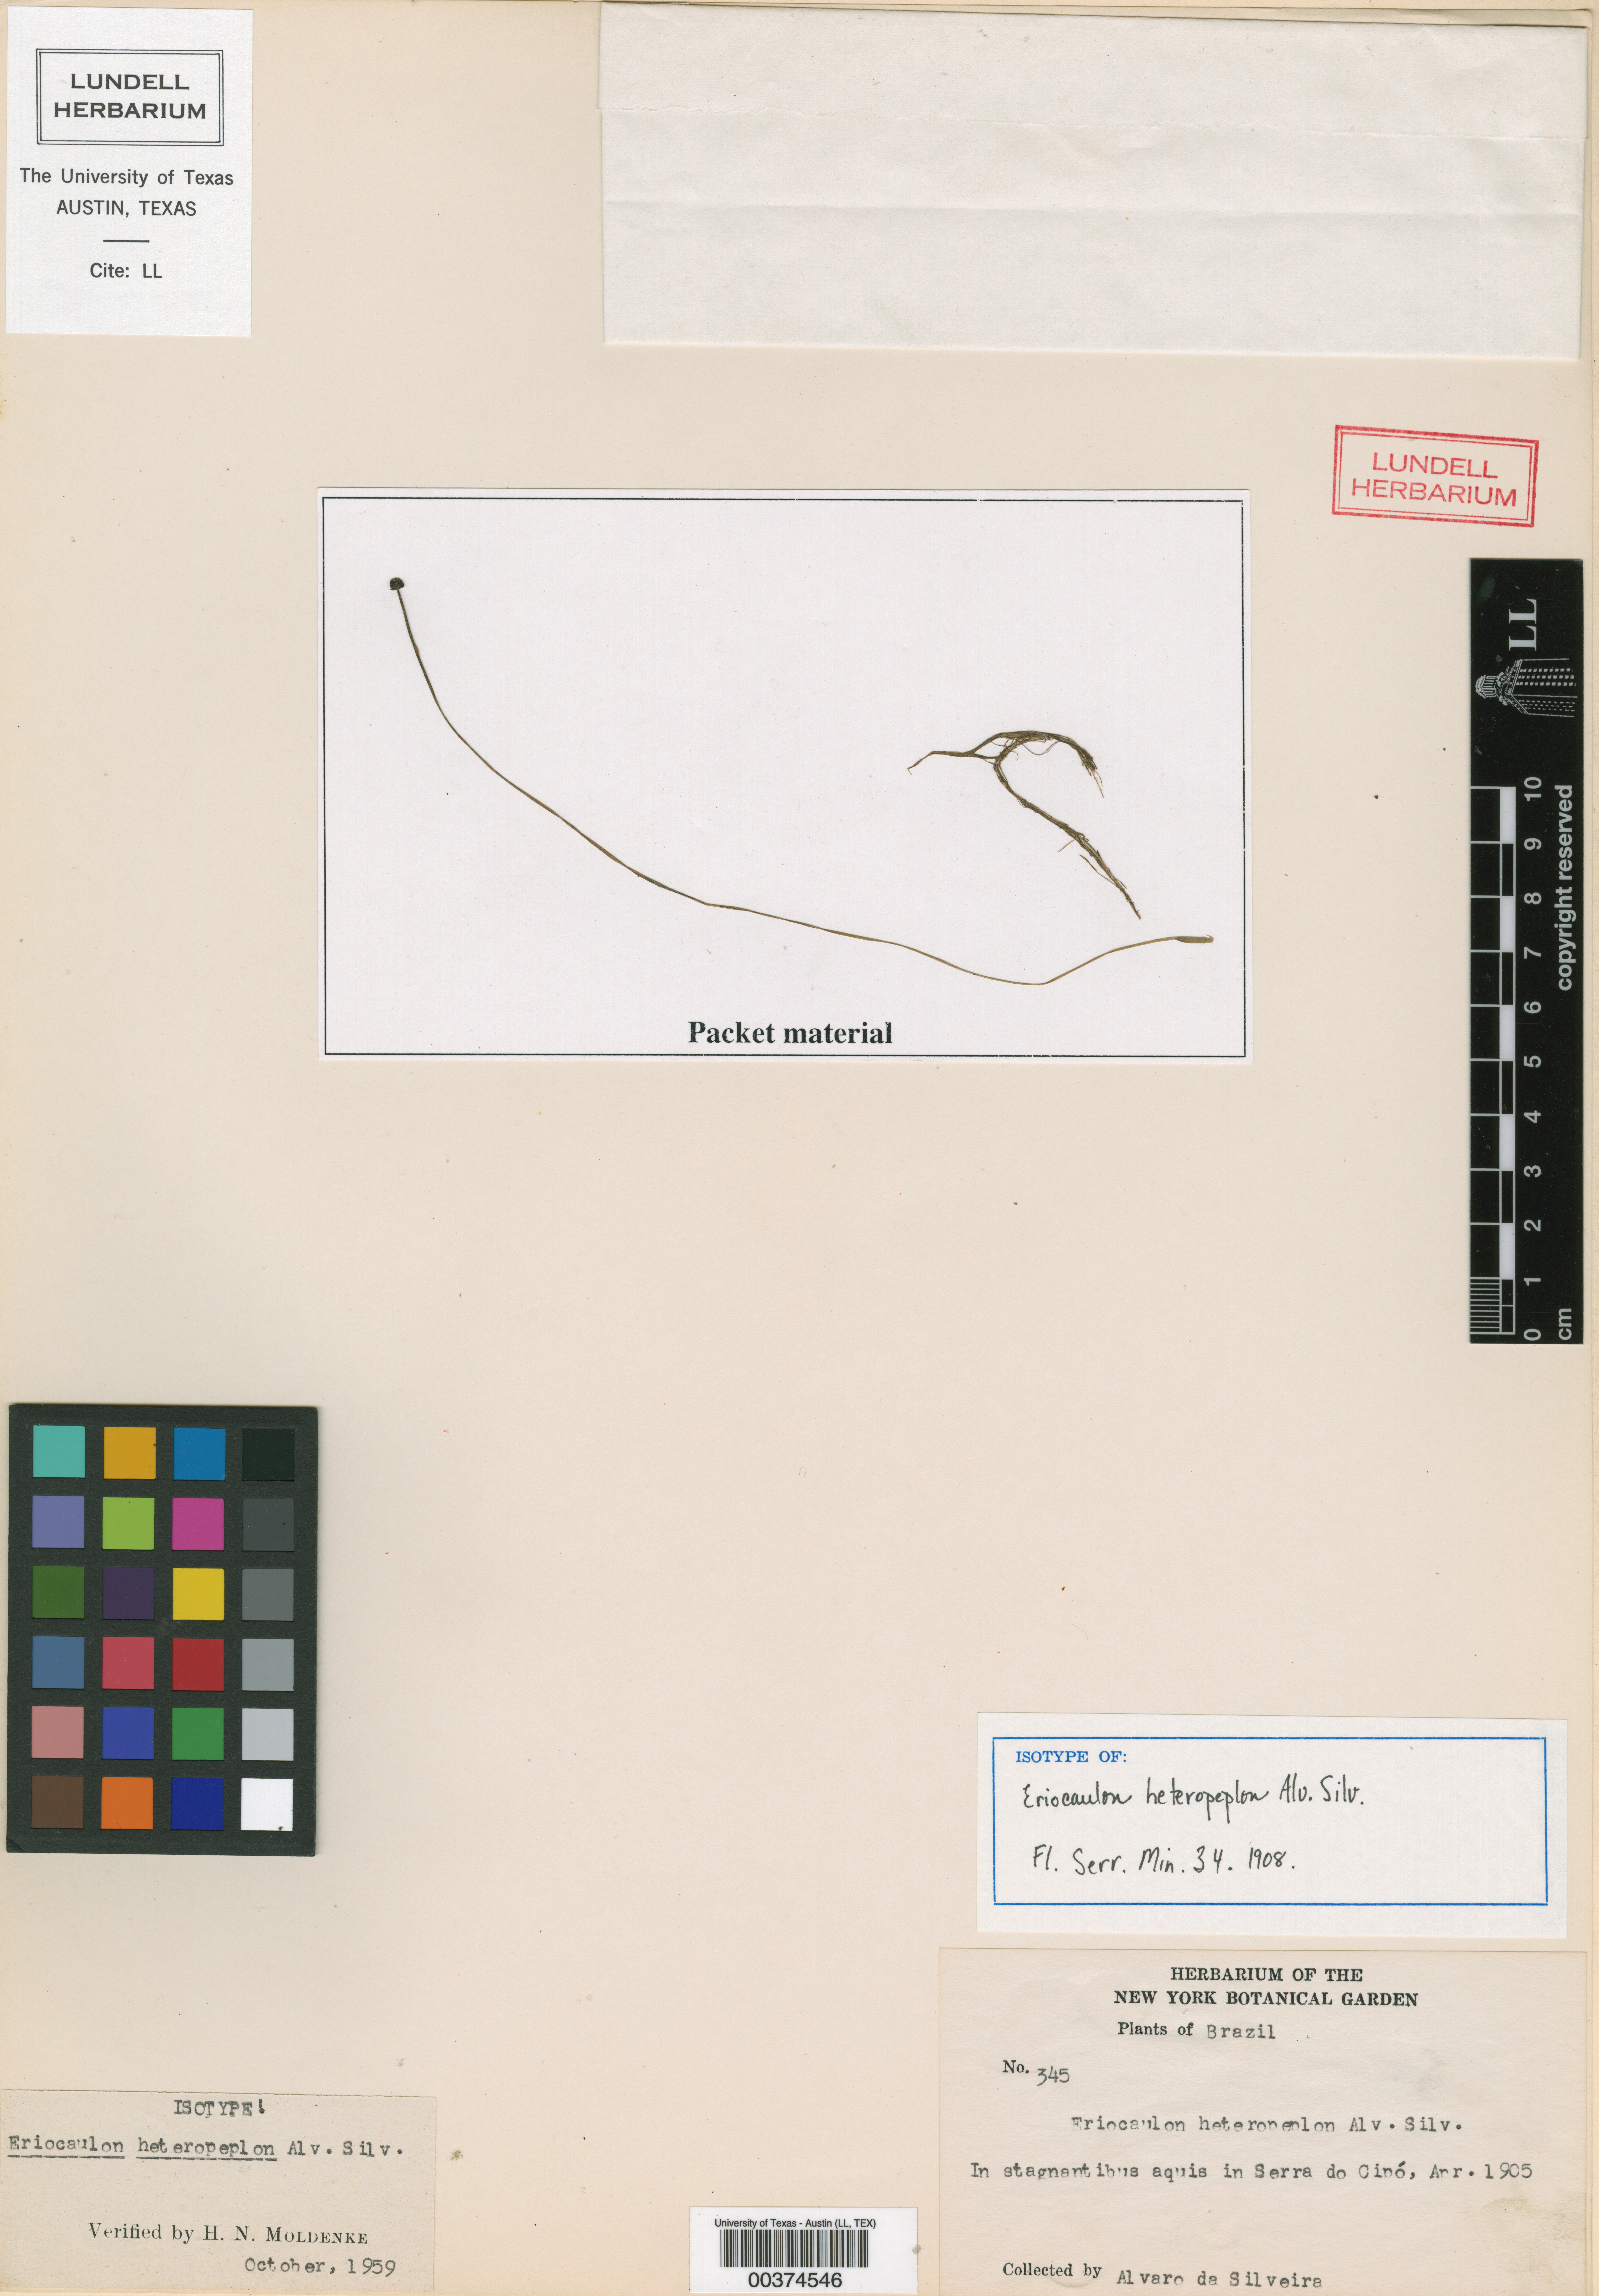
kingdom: Plantae
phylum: Tracheophyta
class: Liliopsida
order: Poales
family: Eriocaulaceae
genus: Eriocaulon
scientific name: Eriocaulon heteropeplon
